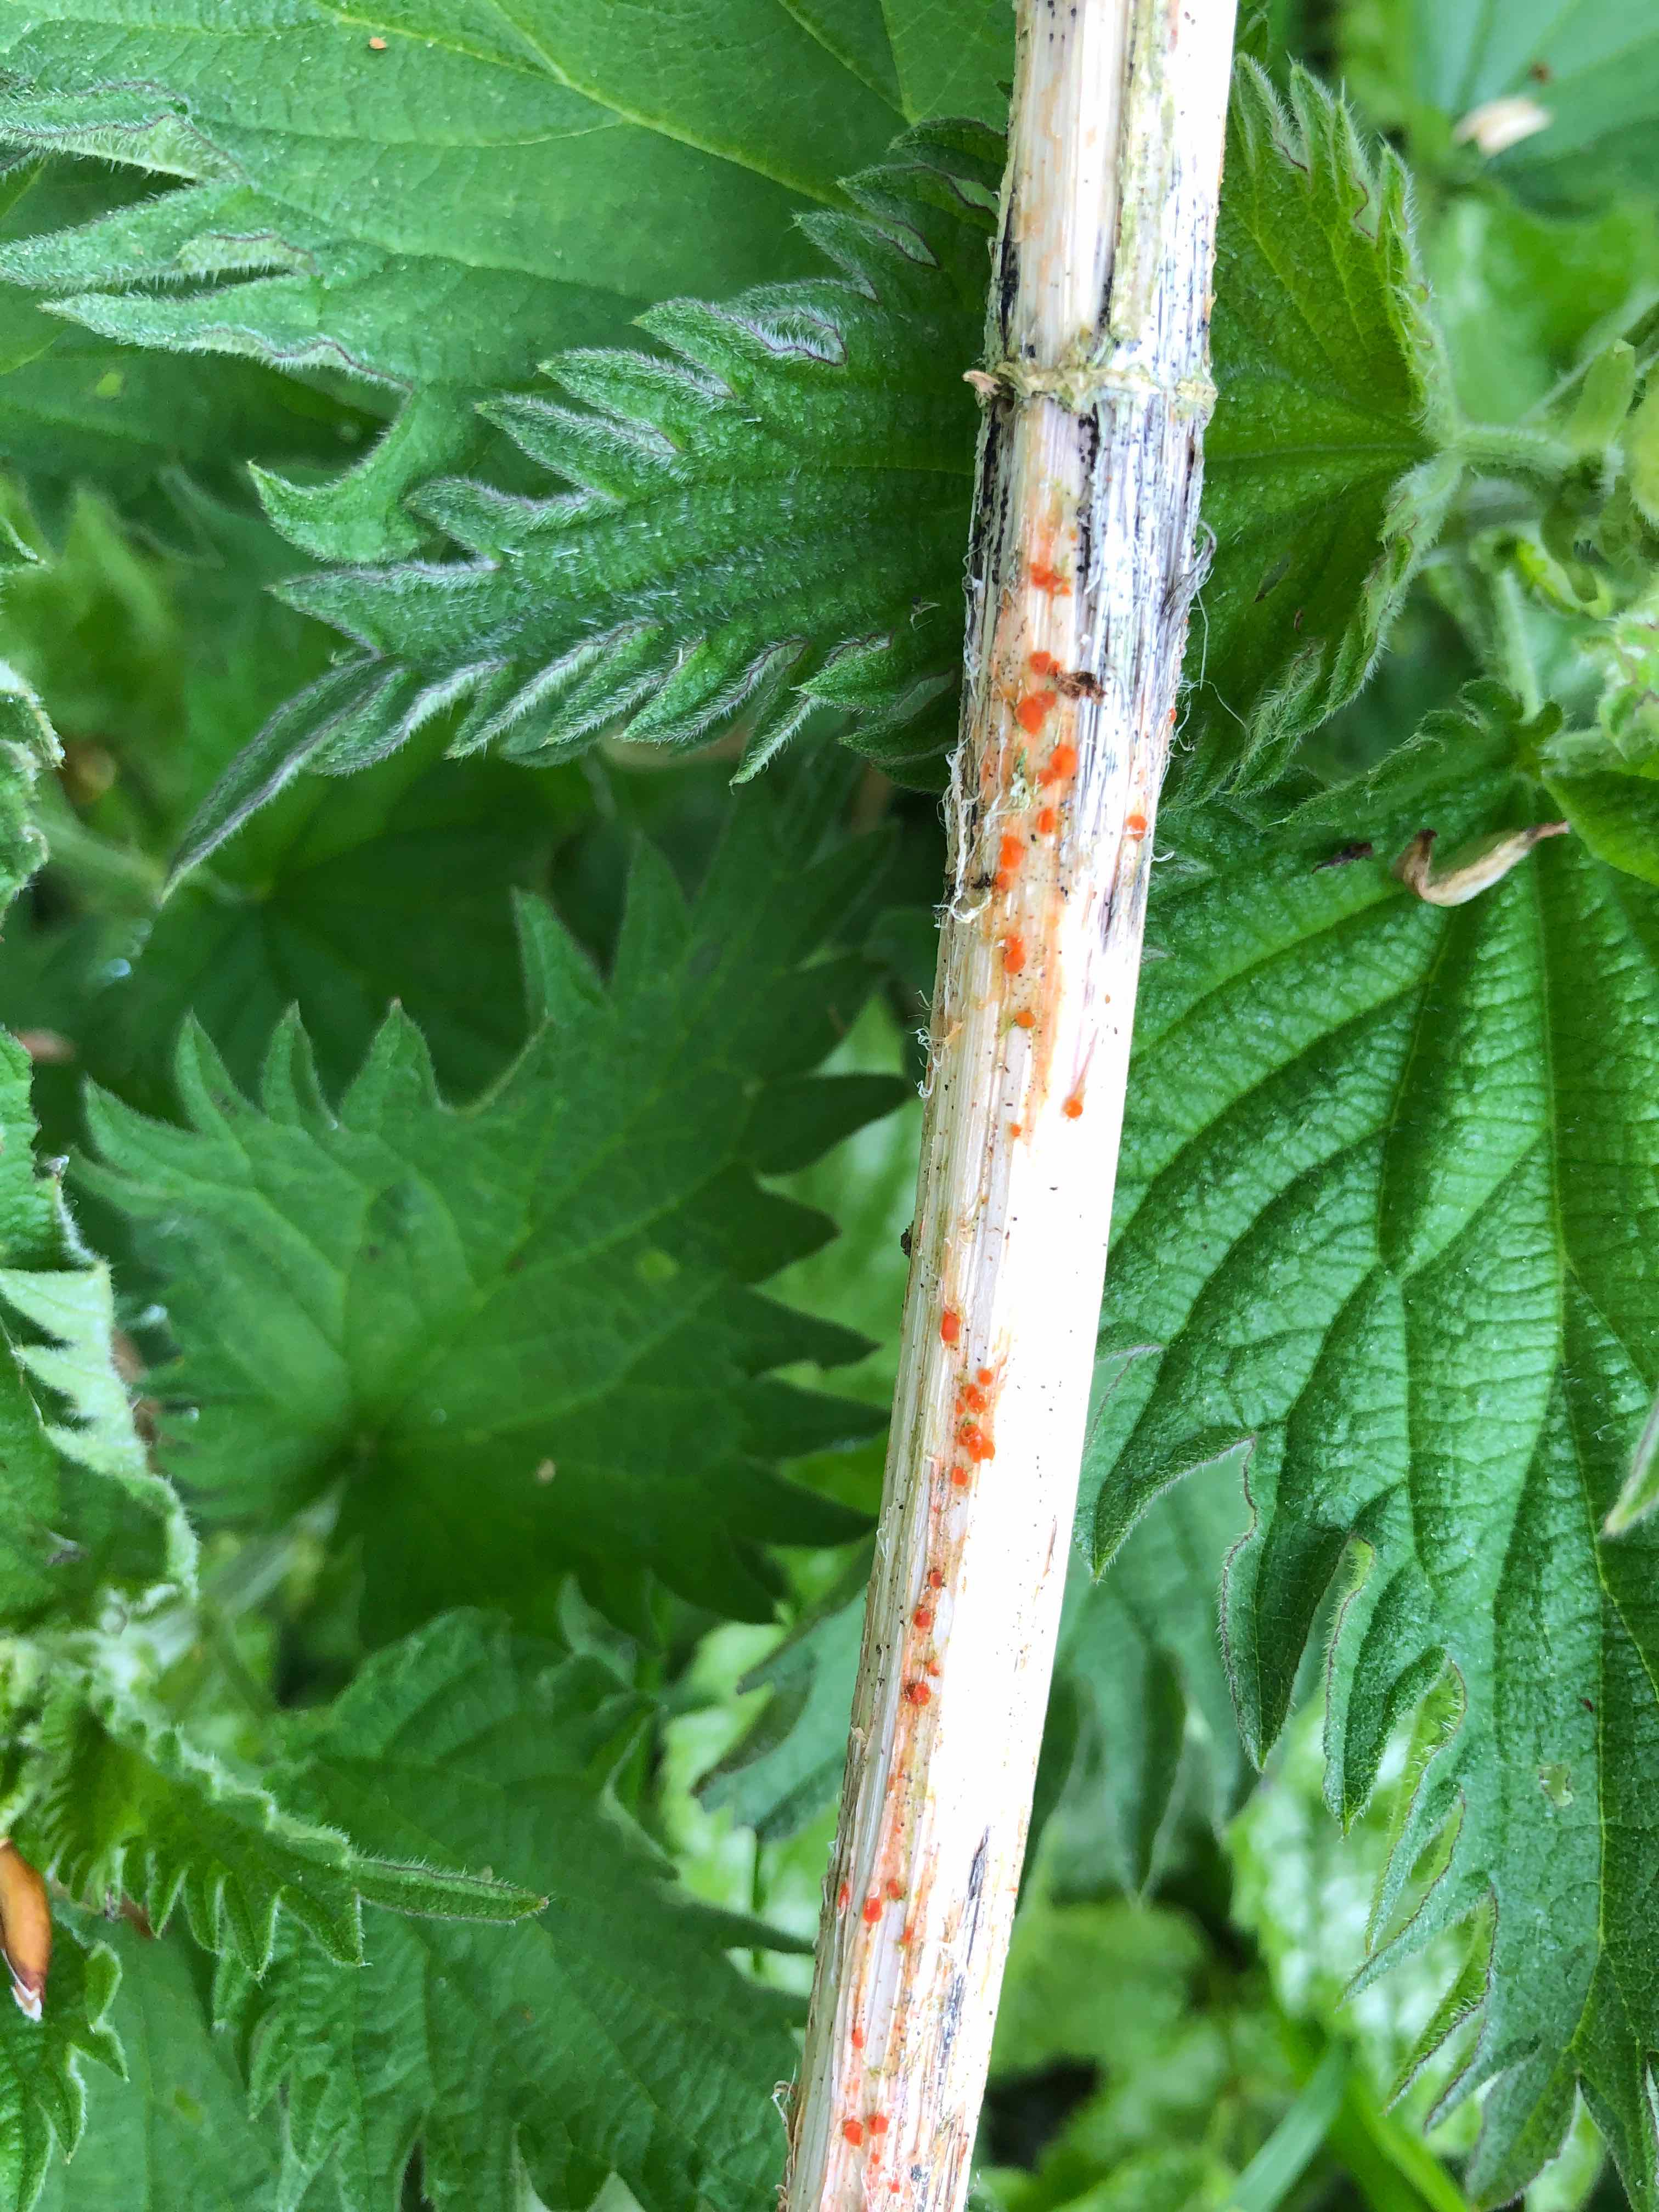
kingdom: Fungi
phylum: Ascomycota
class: Leotiomycetes
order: Helotiales
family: Calloriaceae
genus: Calloria
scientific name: Calloria urticae
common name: nælde-orangeskive
